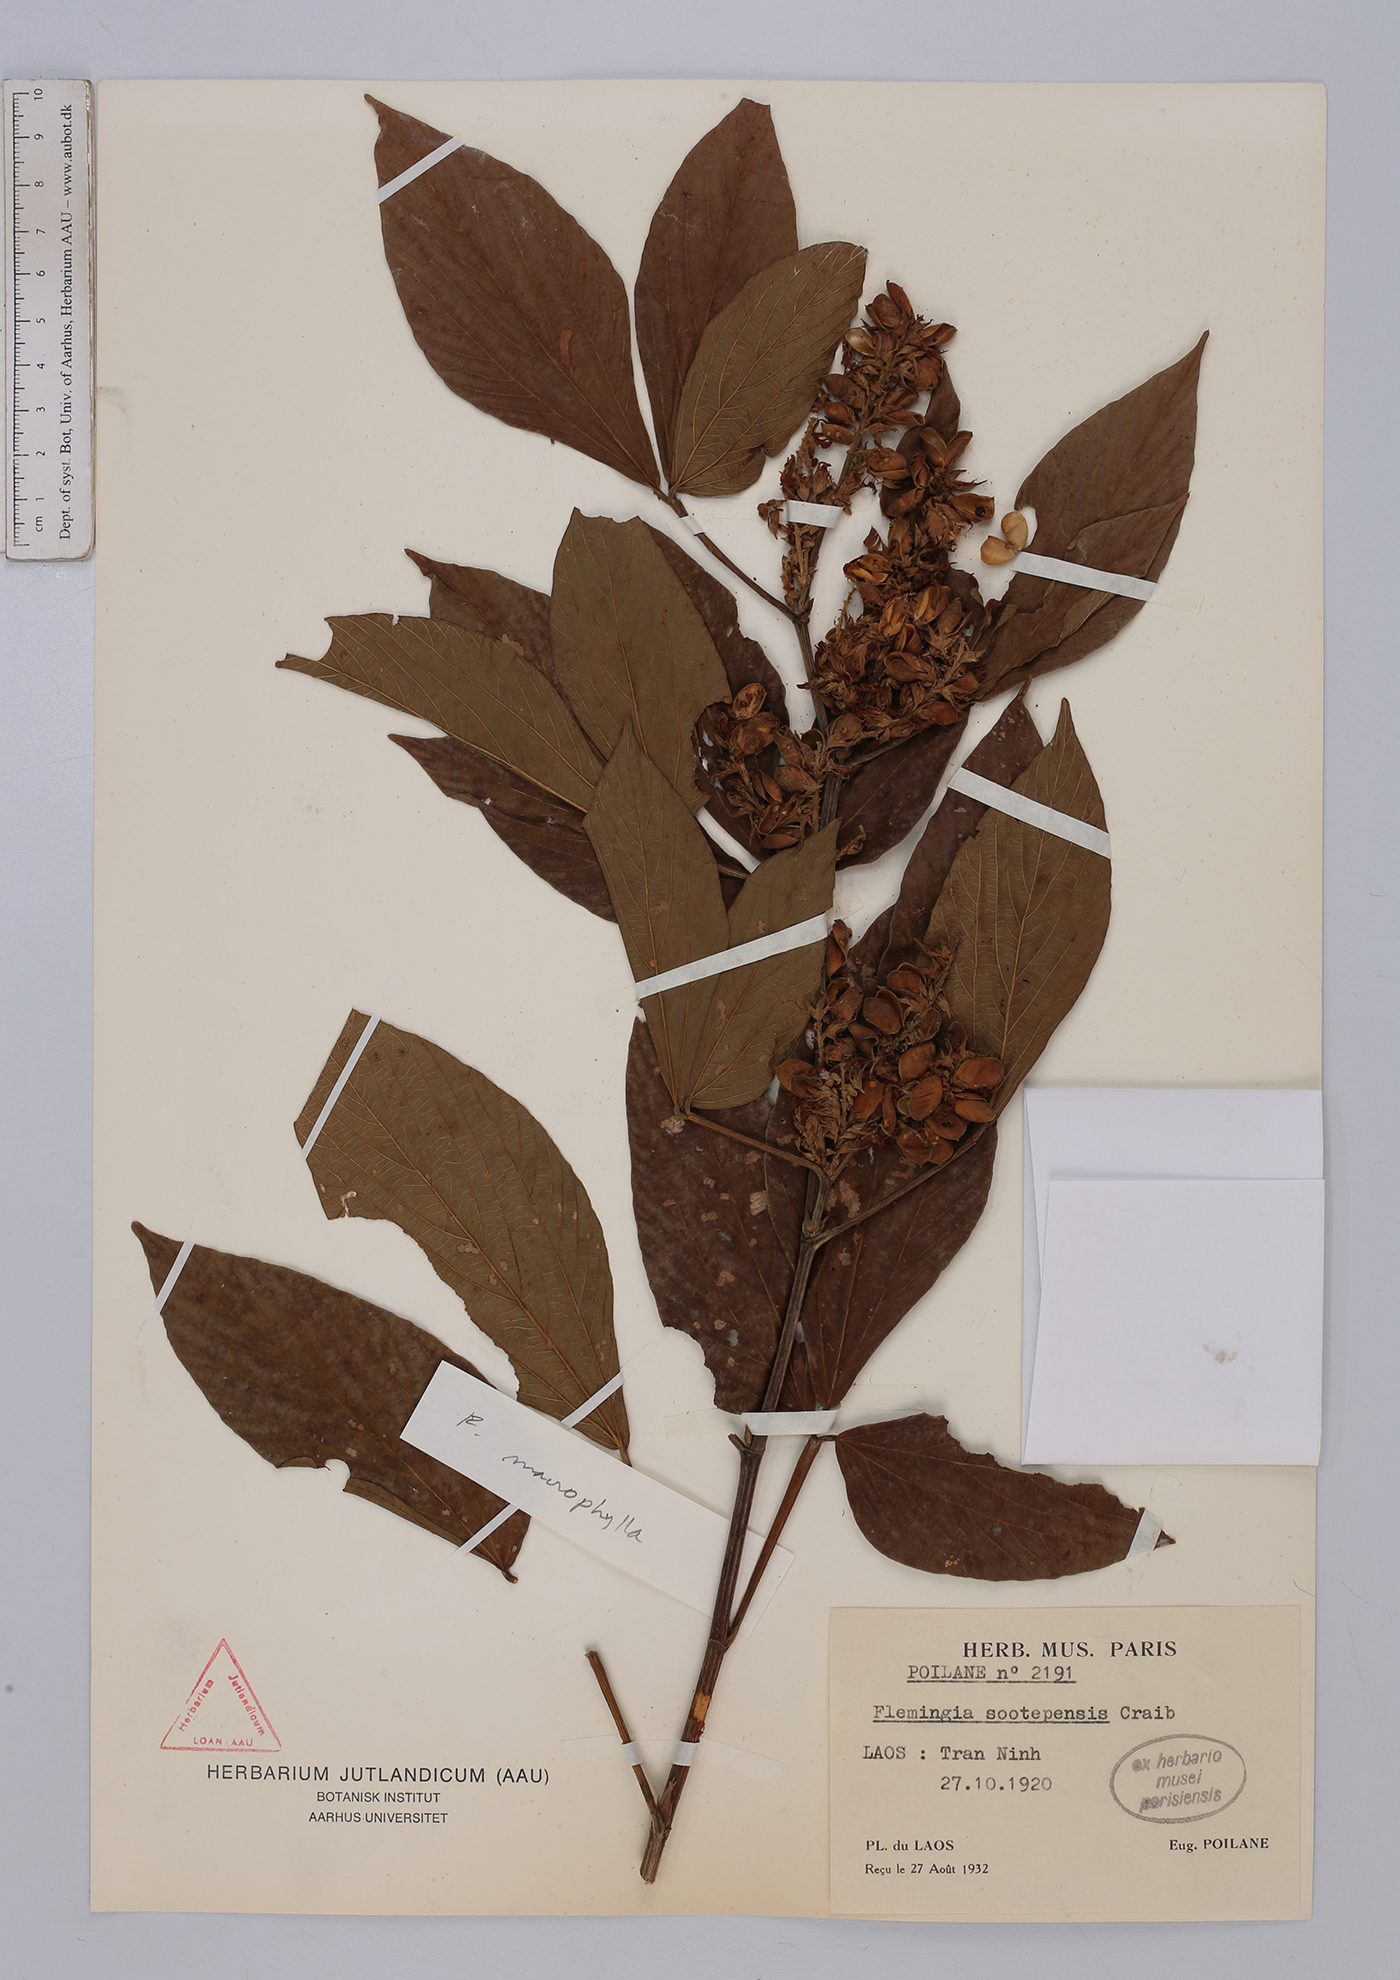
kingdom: Plantae
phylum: Tracheophyta
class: Magnoliopsida
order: Fabales
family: Fabaceae
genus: Flemingia
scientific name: Flemingia macrophylla
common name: Flemingia
